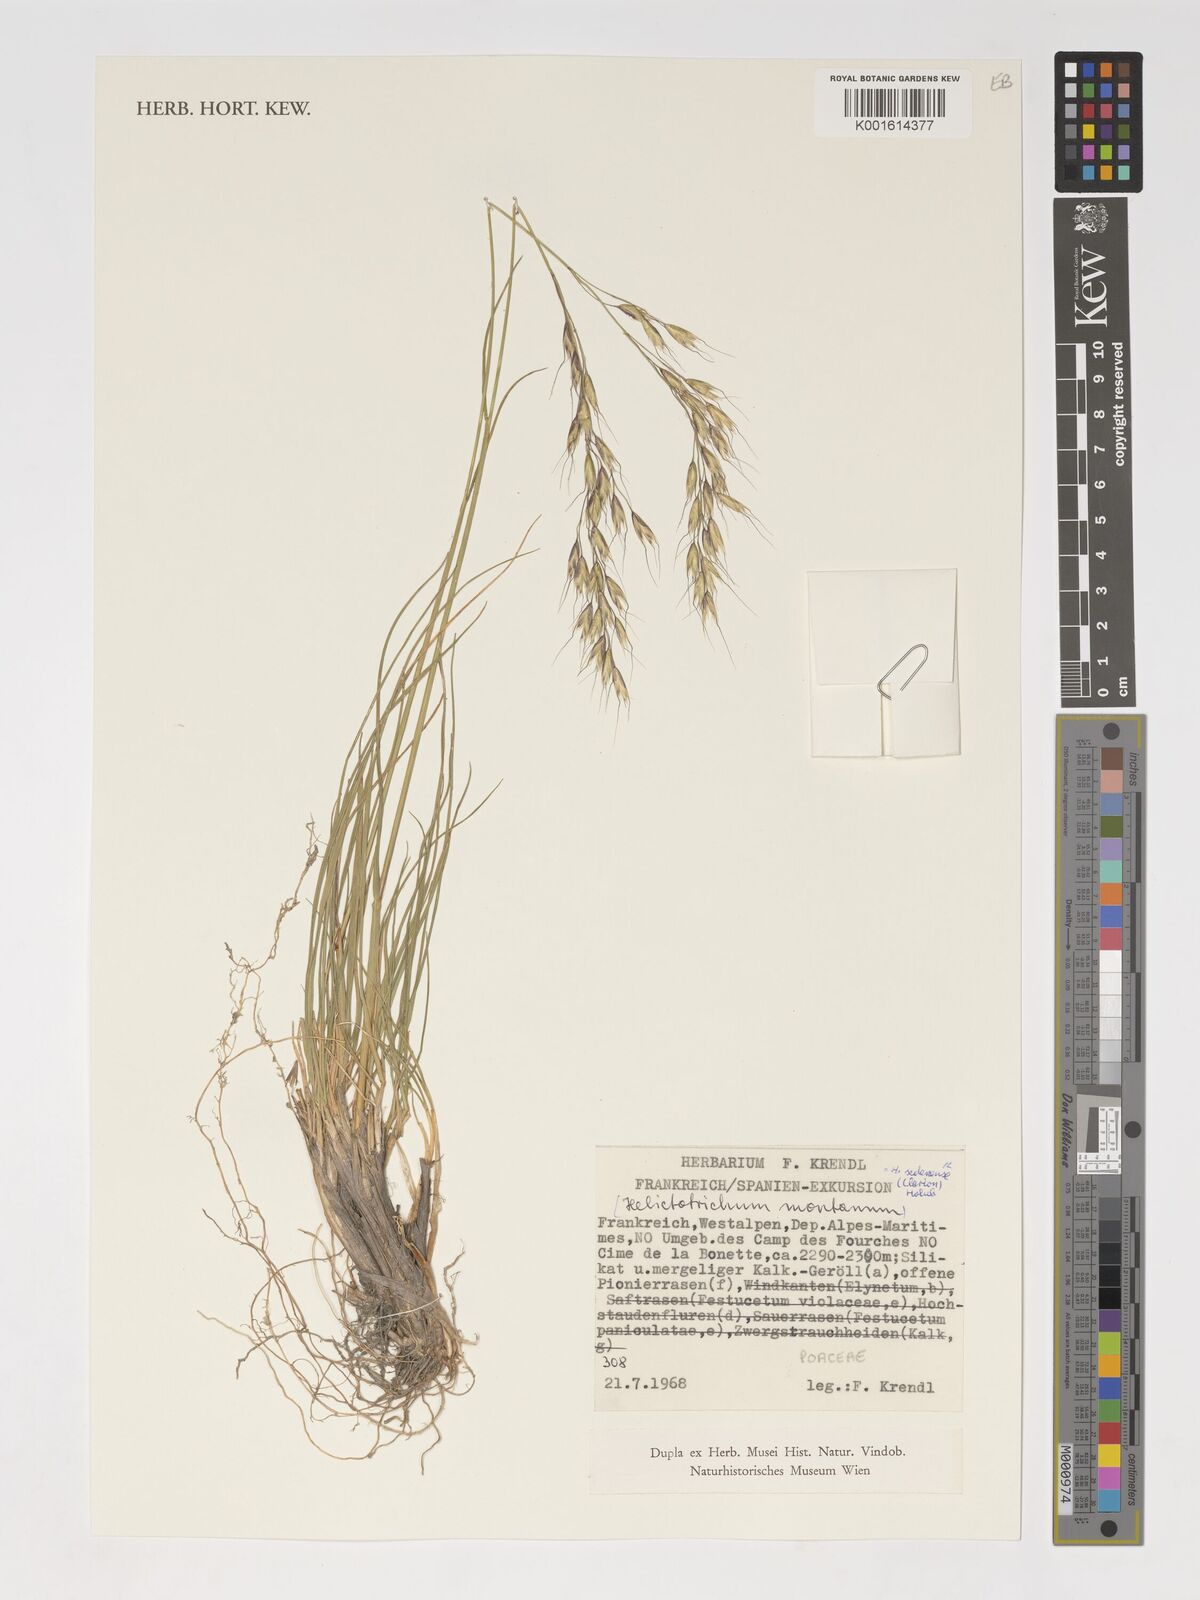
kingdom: Plantae
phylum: Tracheophyta
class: Liliopsida
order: Poales
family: Poaceae
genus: Helictotrichon
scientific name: Helictotrichon sedenense
